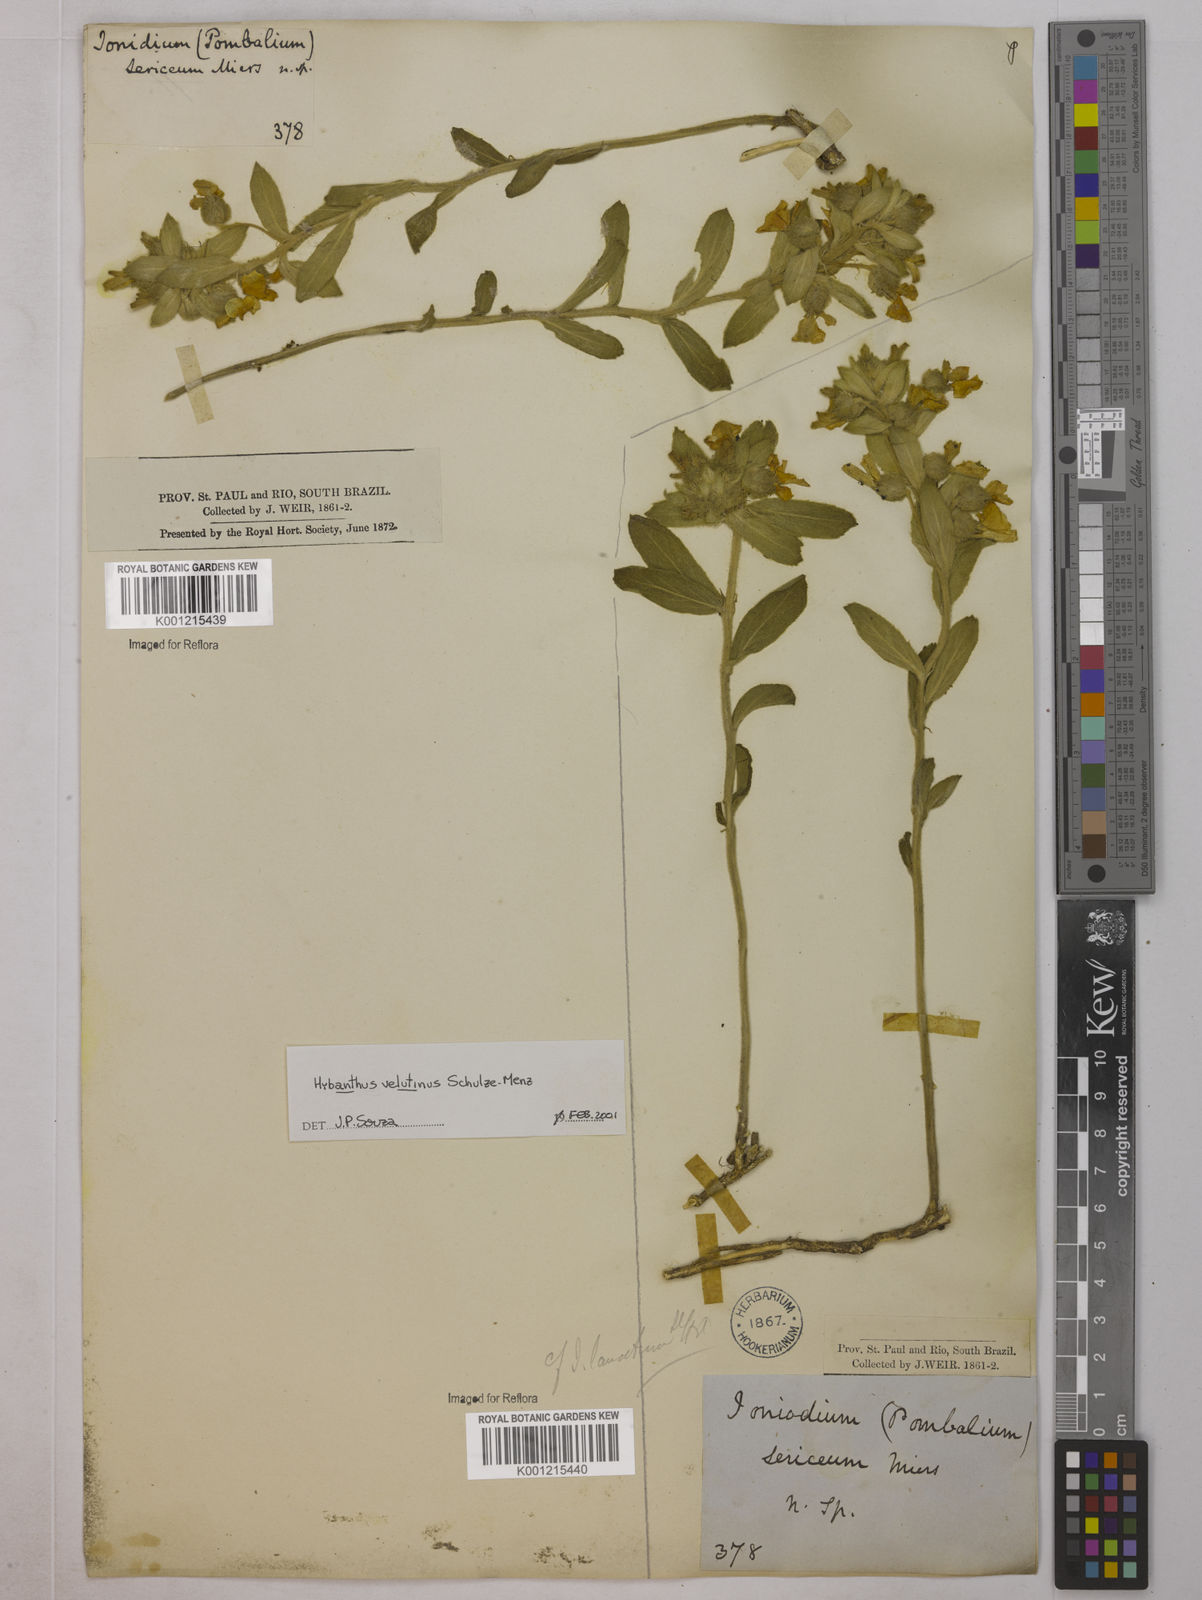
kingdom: Plantae
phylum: Tracheophyta
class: Magnoliopsida
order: Malpighiales
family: Violaceae
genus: Pombalia
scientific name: Pombalia velutina
